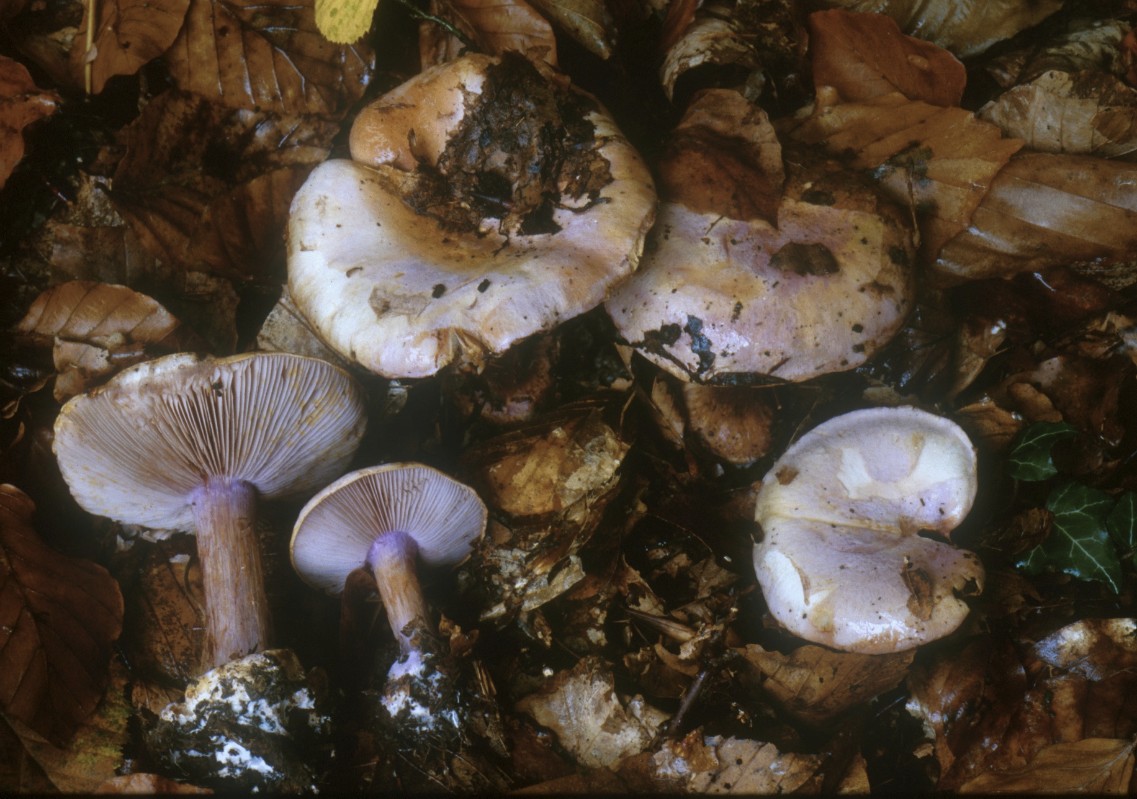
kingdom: Fungi
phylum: Basidiomycota
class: Agaricomycetes
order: Agaricales
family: Cortinariaceae
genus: Calonarius
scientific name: Calonarius sodagnitus
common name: violblå slørhat
